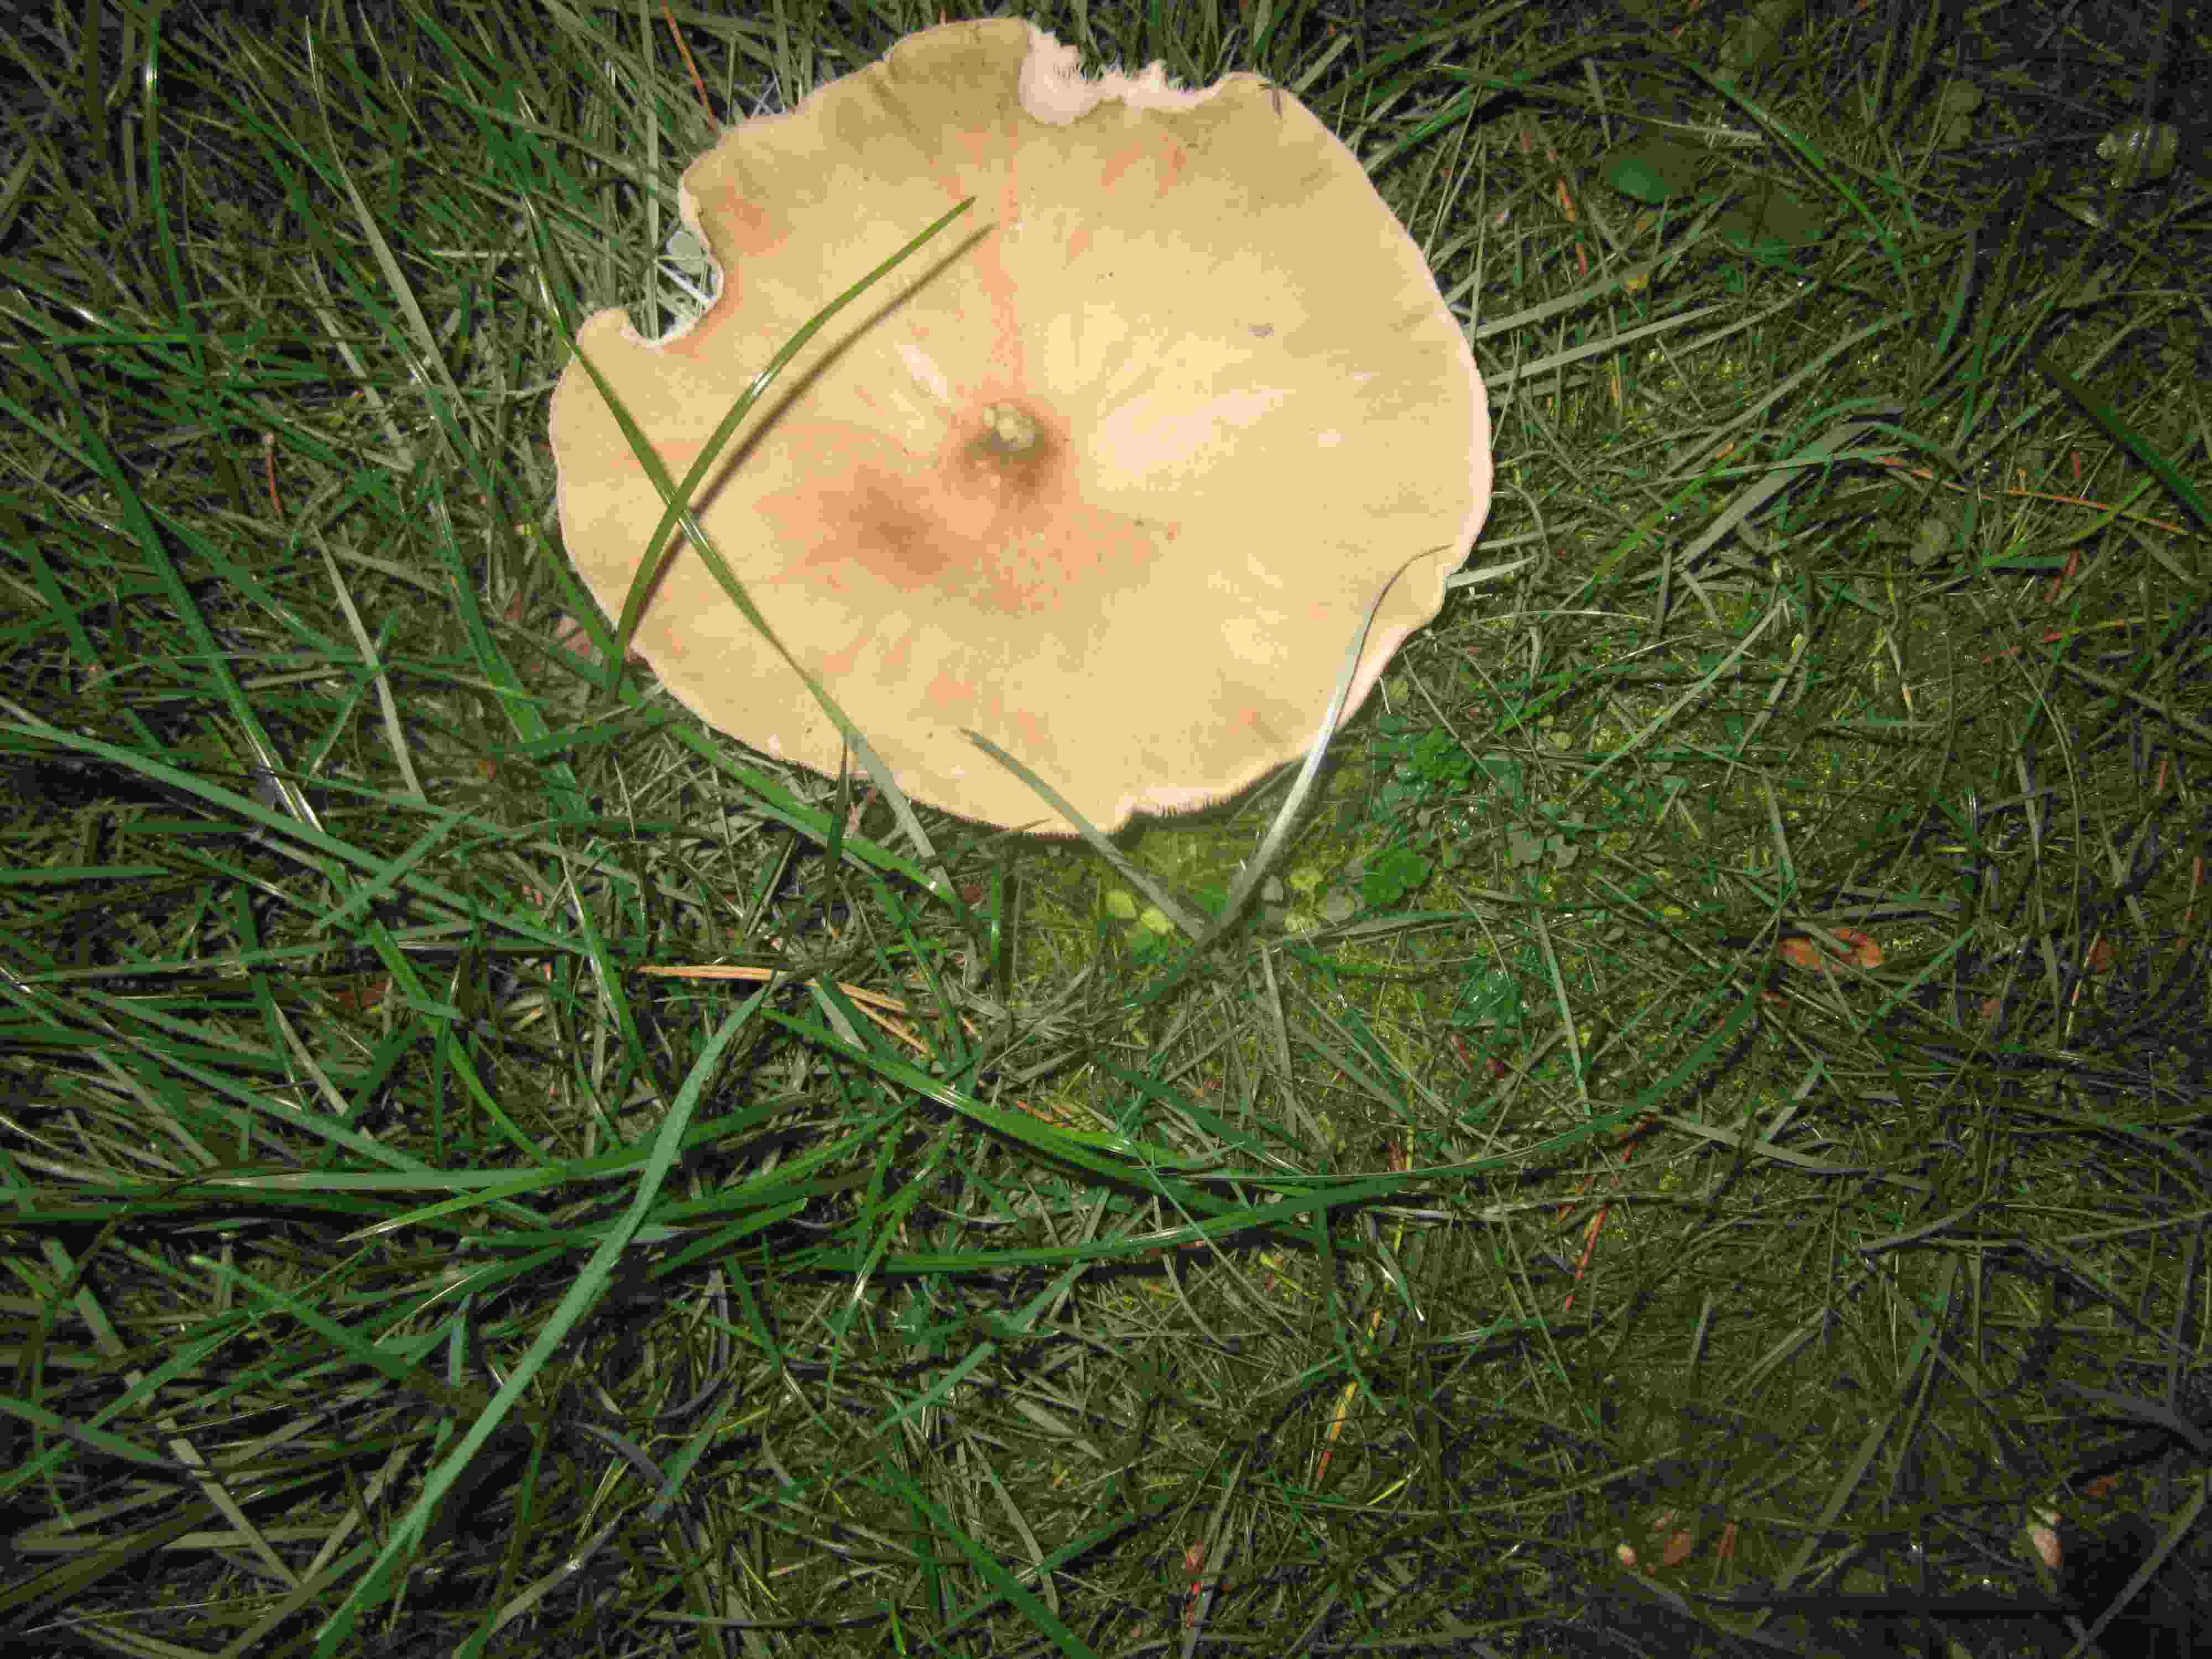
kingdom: Fungi
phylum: Basidiomycota
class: Agaricomycetes
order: Agaricales
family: Tricholomataceae
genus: Aspropaxillus
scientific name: Aspropaxillus giganteus
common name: kæmpe-tragtridderhat
